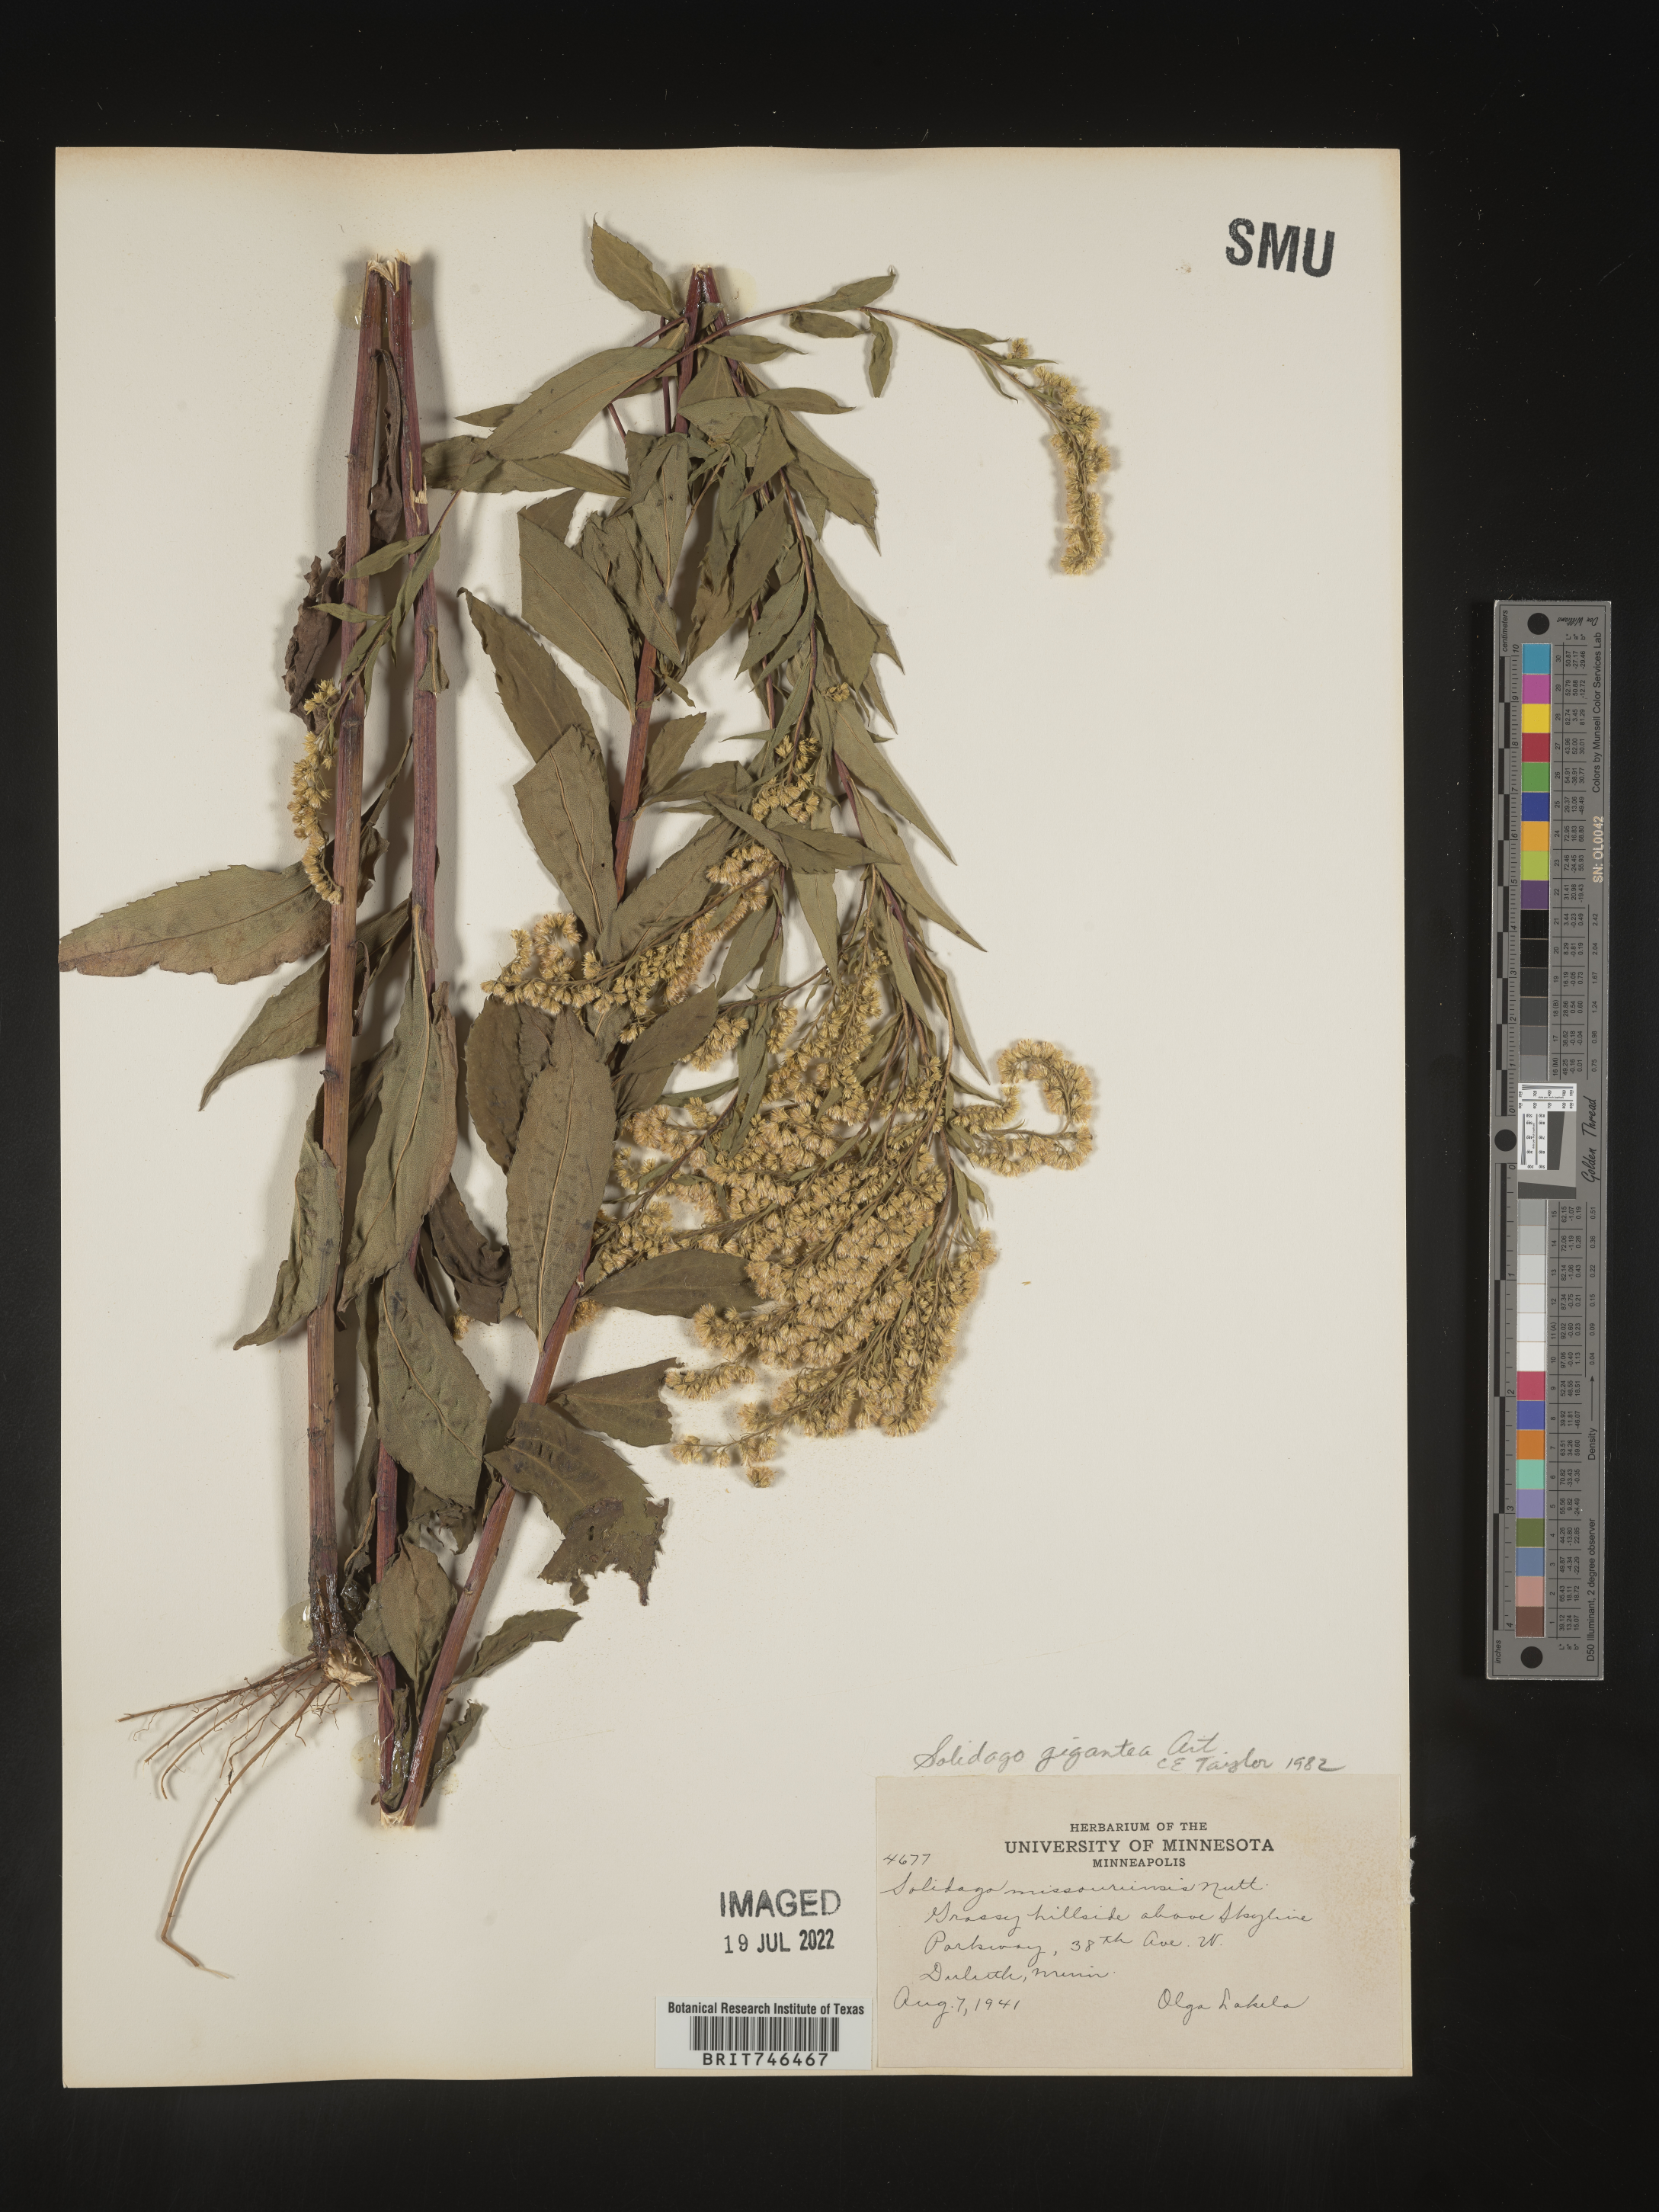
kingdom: Plantae
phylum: Tracheophyta
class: Magnoliopsida
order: Asterales
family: Asteraceae
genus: Solidago
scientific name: Solidago gigantea
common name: Giant goldenrod
